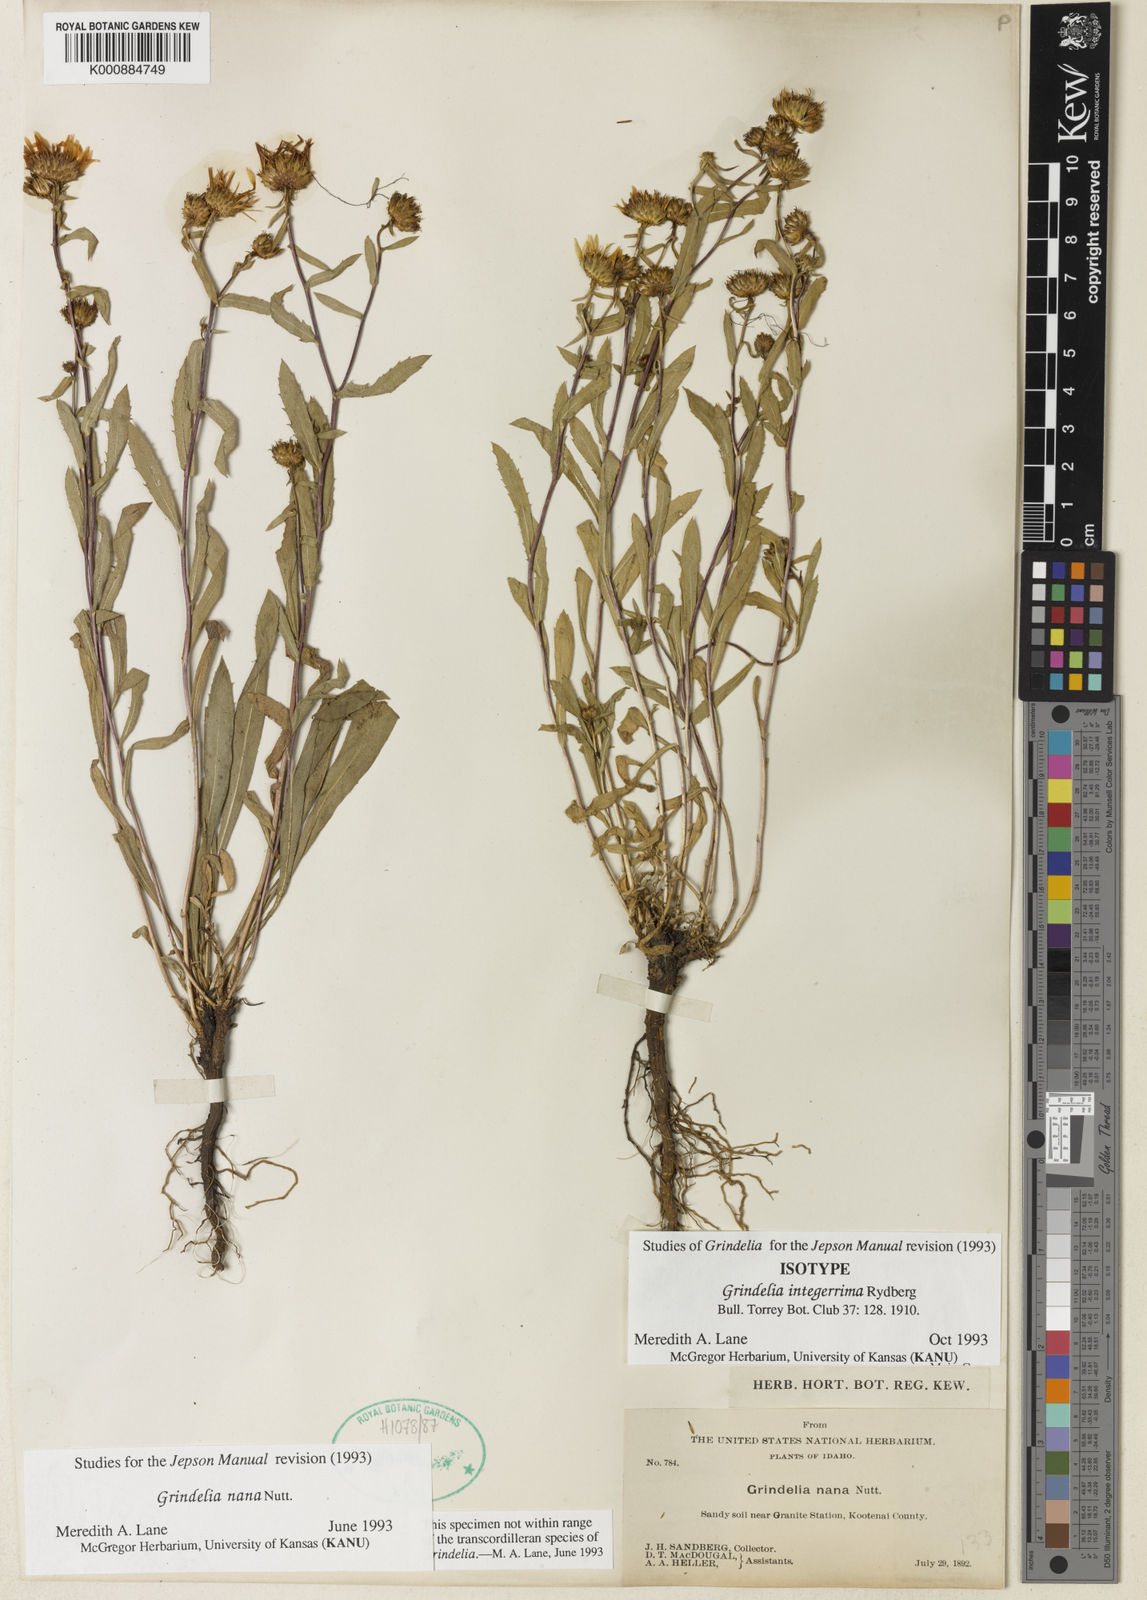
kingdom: Plantae
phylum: Tracheophyta
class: Magnoliopsida
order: Asterales
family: Asteraceae
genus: Grindelia
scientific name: Grindelia hirsutula
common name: Hairy gumweed
